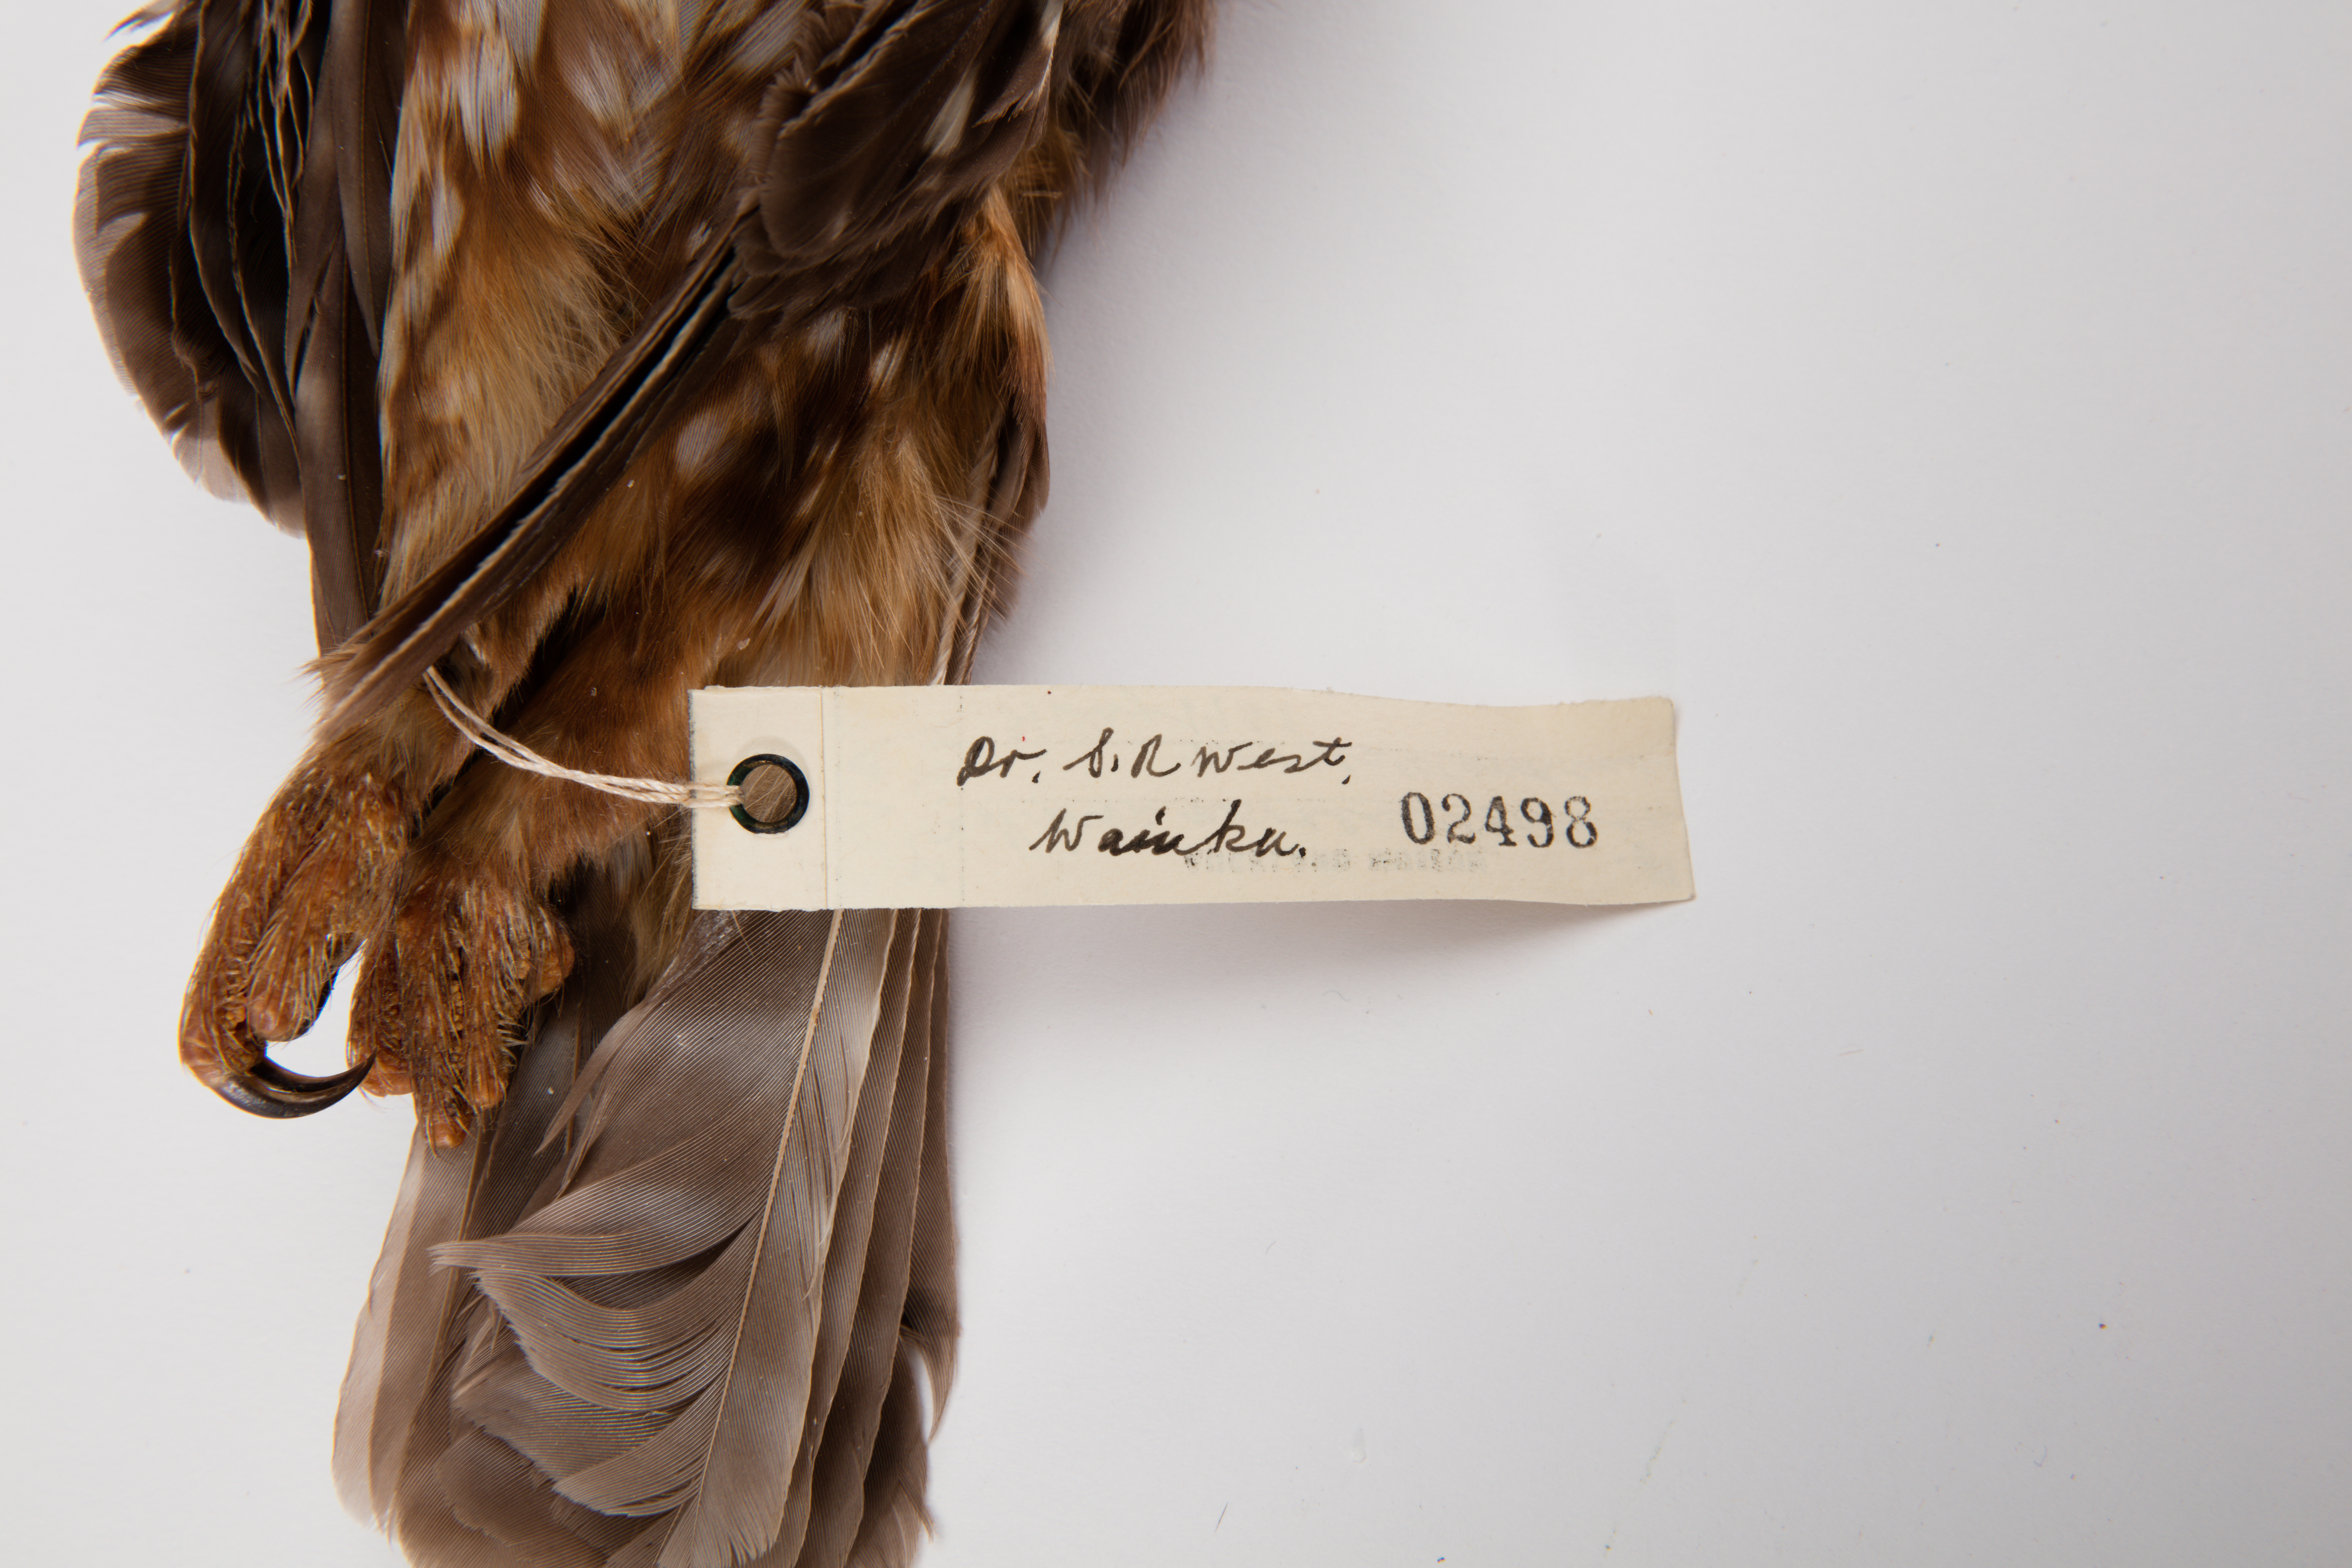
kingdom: Animalia
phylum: Chordata
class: Aves
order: Strigiformes
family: Strigidae
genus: Ninox
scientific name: Ninox novaeseelandiae
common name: Morepork
